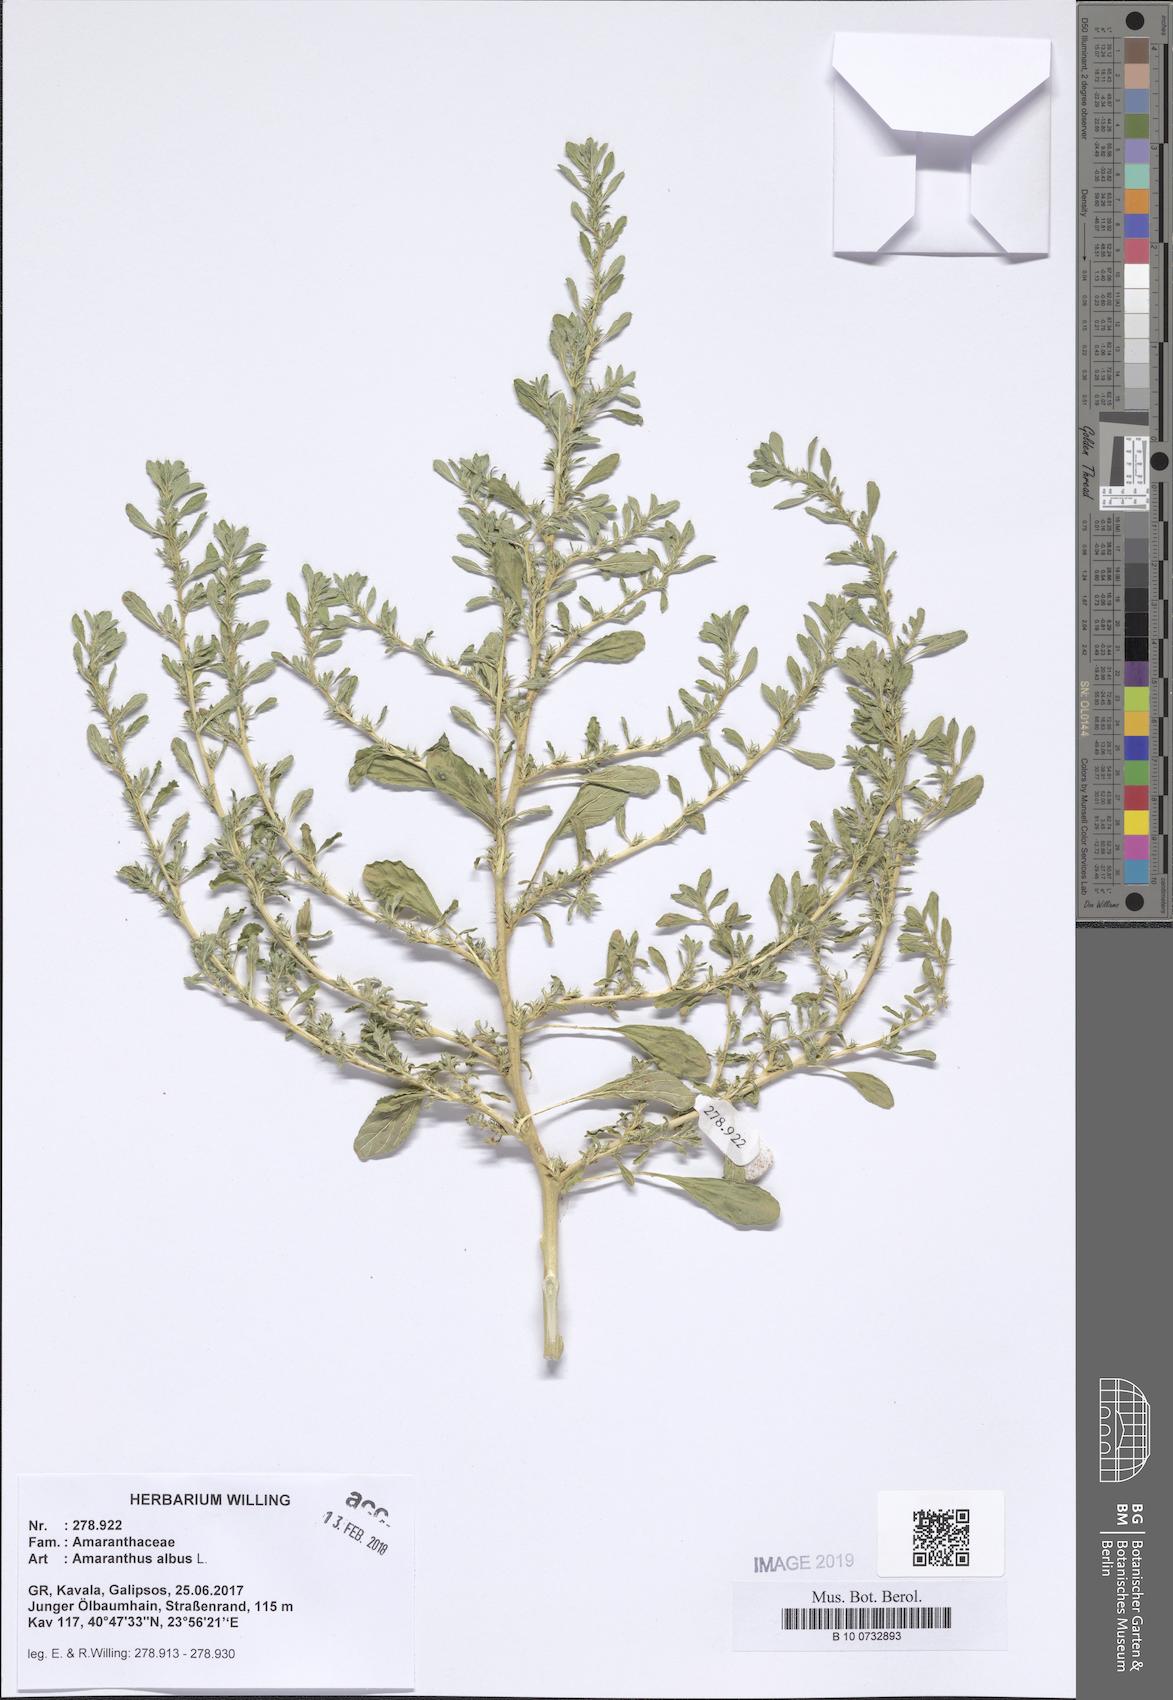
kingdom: Plantae
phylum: Tracheophyta
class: Magnoliopsida
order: Caryophyllales
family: Amaranthaceae
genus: Amaranthus
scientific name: Amaranthus albus
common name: White pigweed
